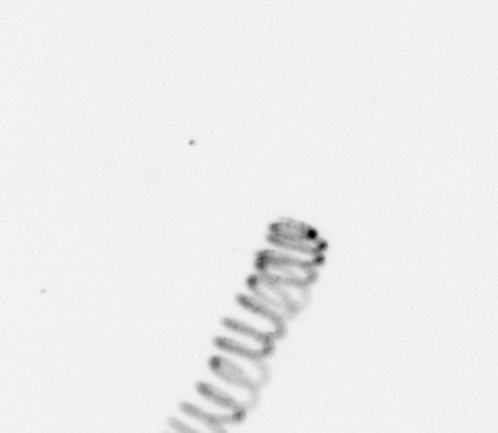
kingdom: Chromista
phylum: Ochrophyta
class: Bacillariophyceae
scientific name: Bacillariophyceae
